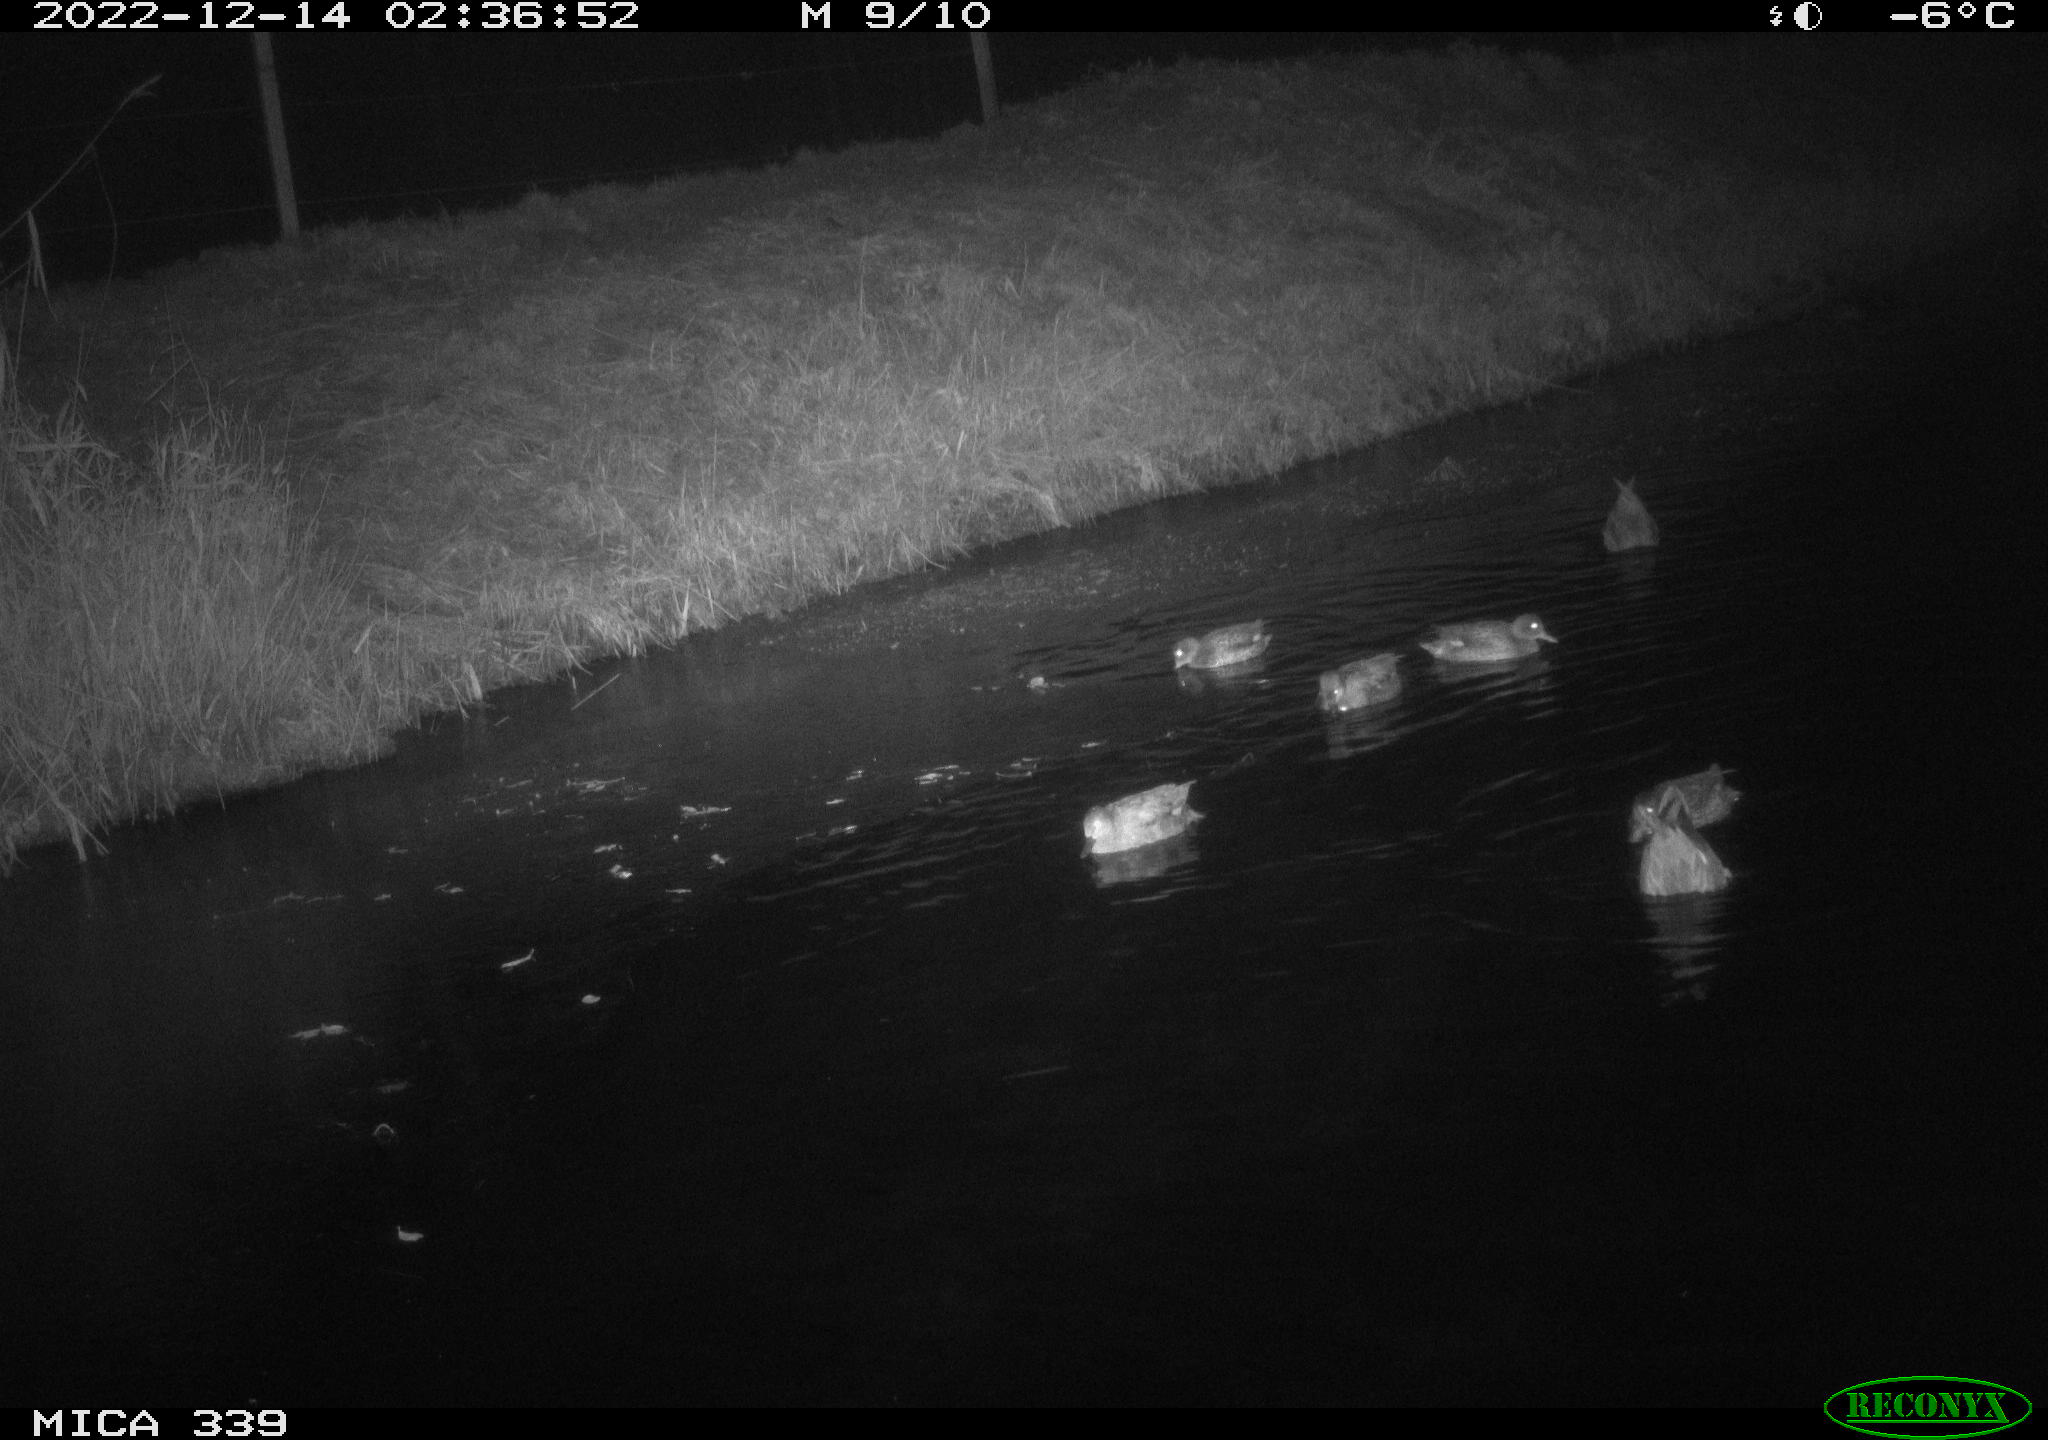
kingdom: Animalia
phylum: Chordata
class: Aves
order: Anseriformes
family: Anatidae
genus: Anas
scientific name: Anas
